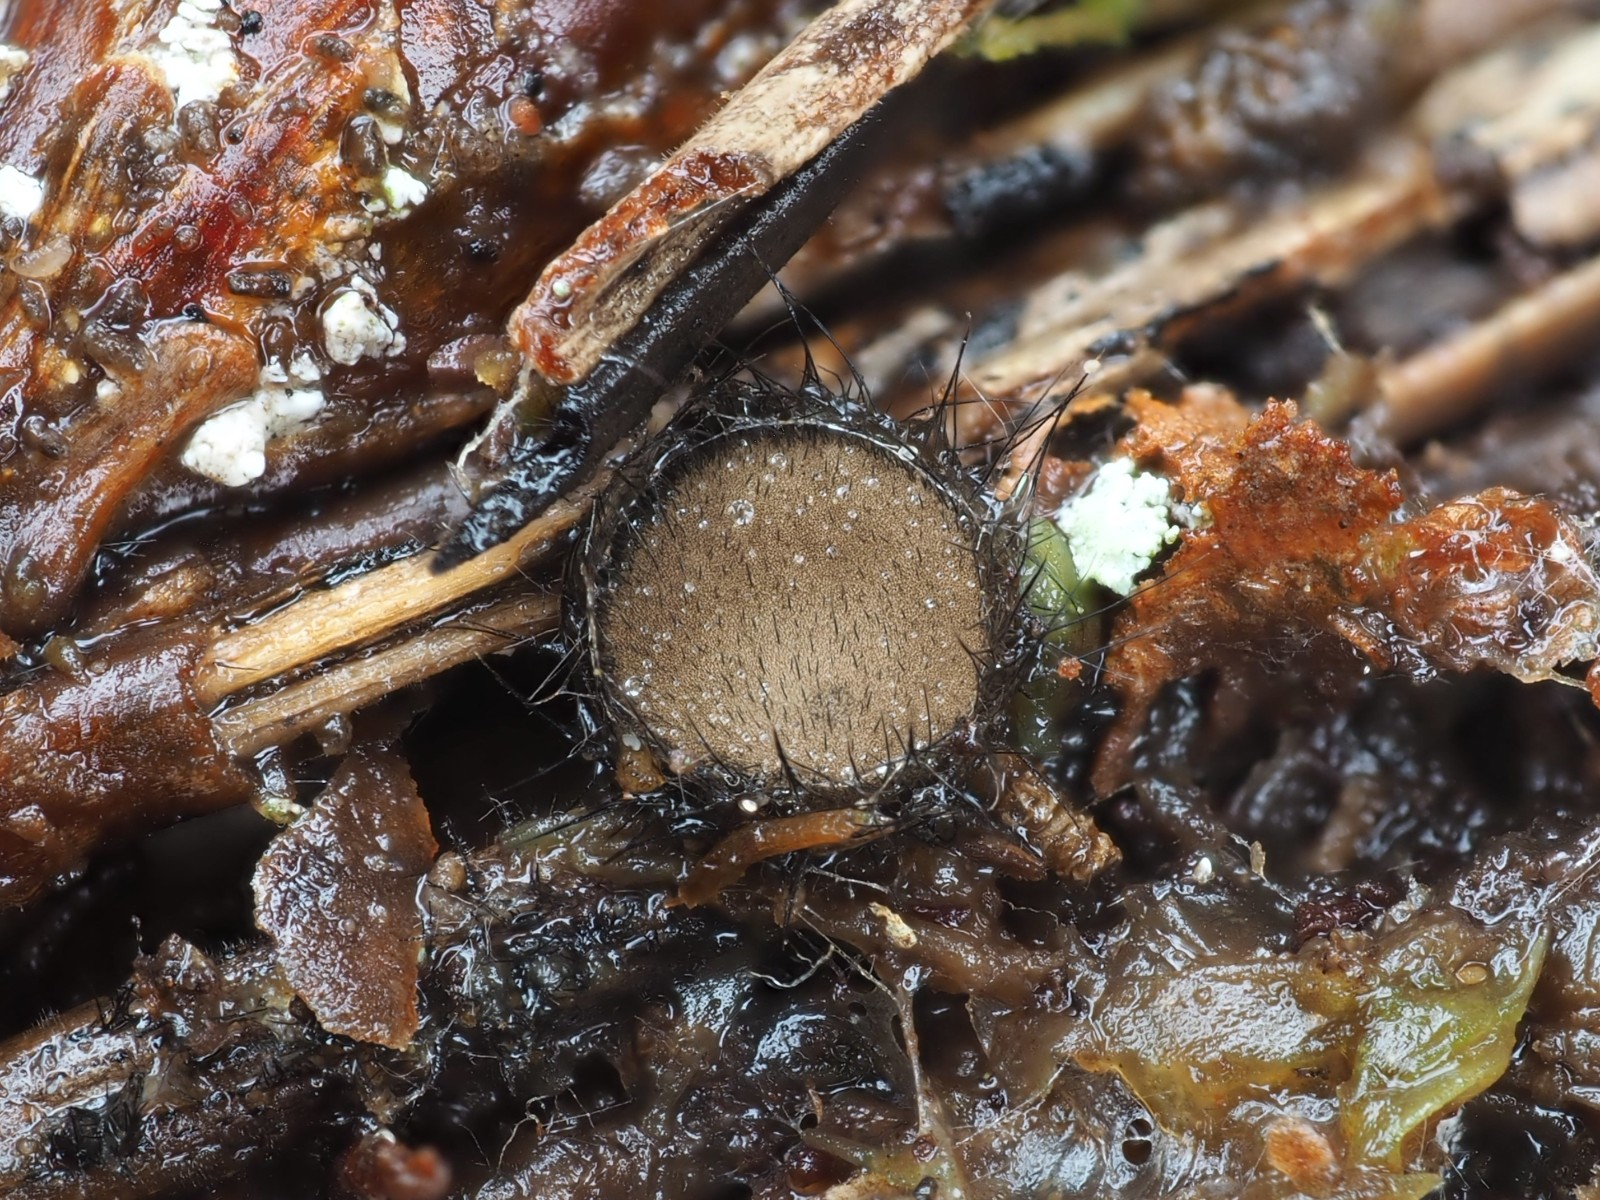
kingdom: Fungi
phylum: Ascomycota
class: Pezizomycetes
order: Pezizales
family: Chorioactidaceae
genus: Desmazierella
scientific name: Desmazierella acicola
